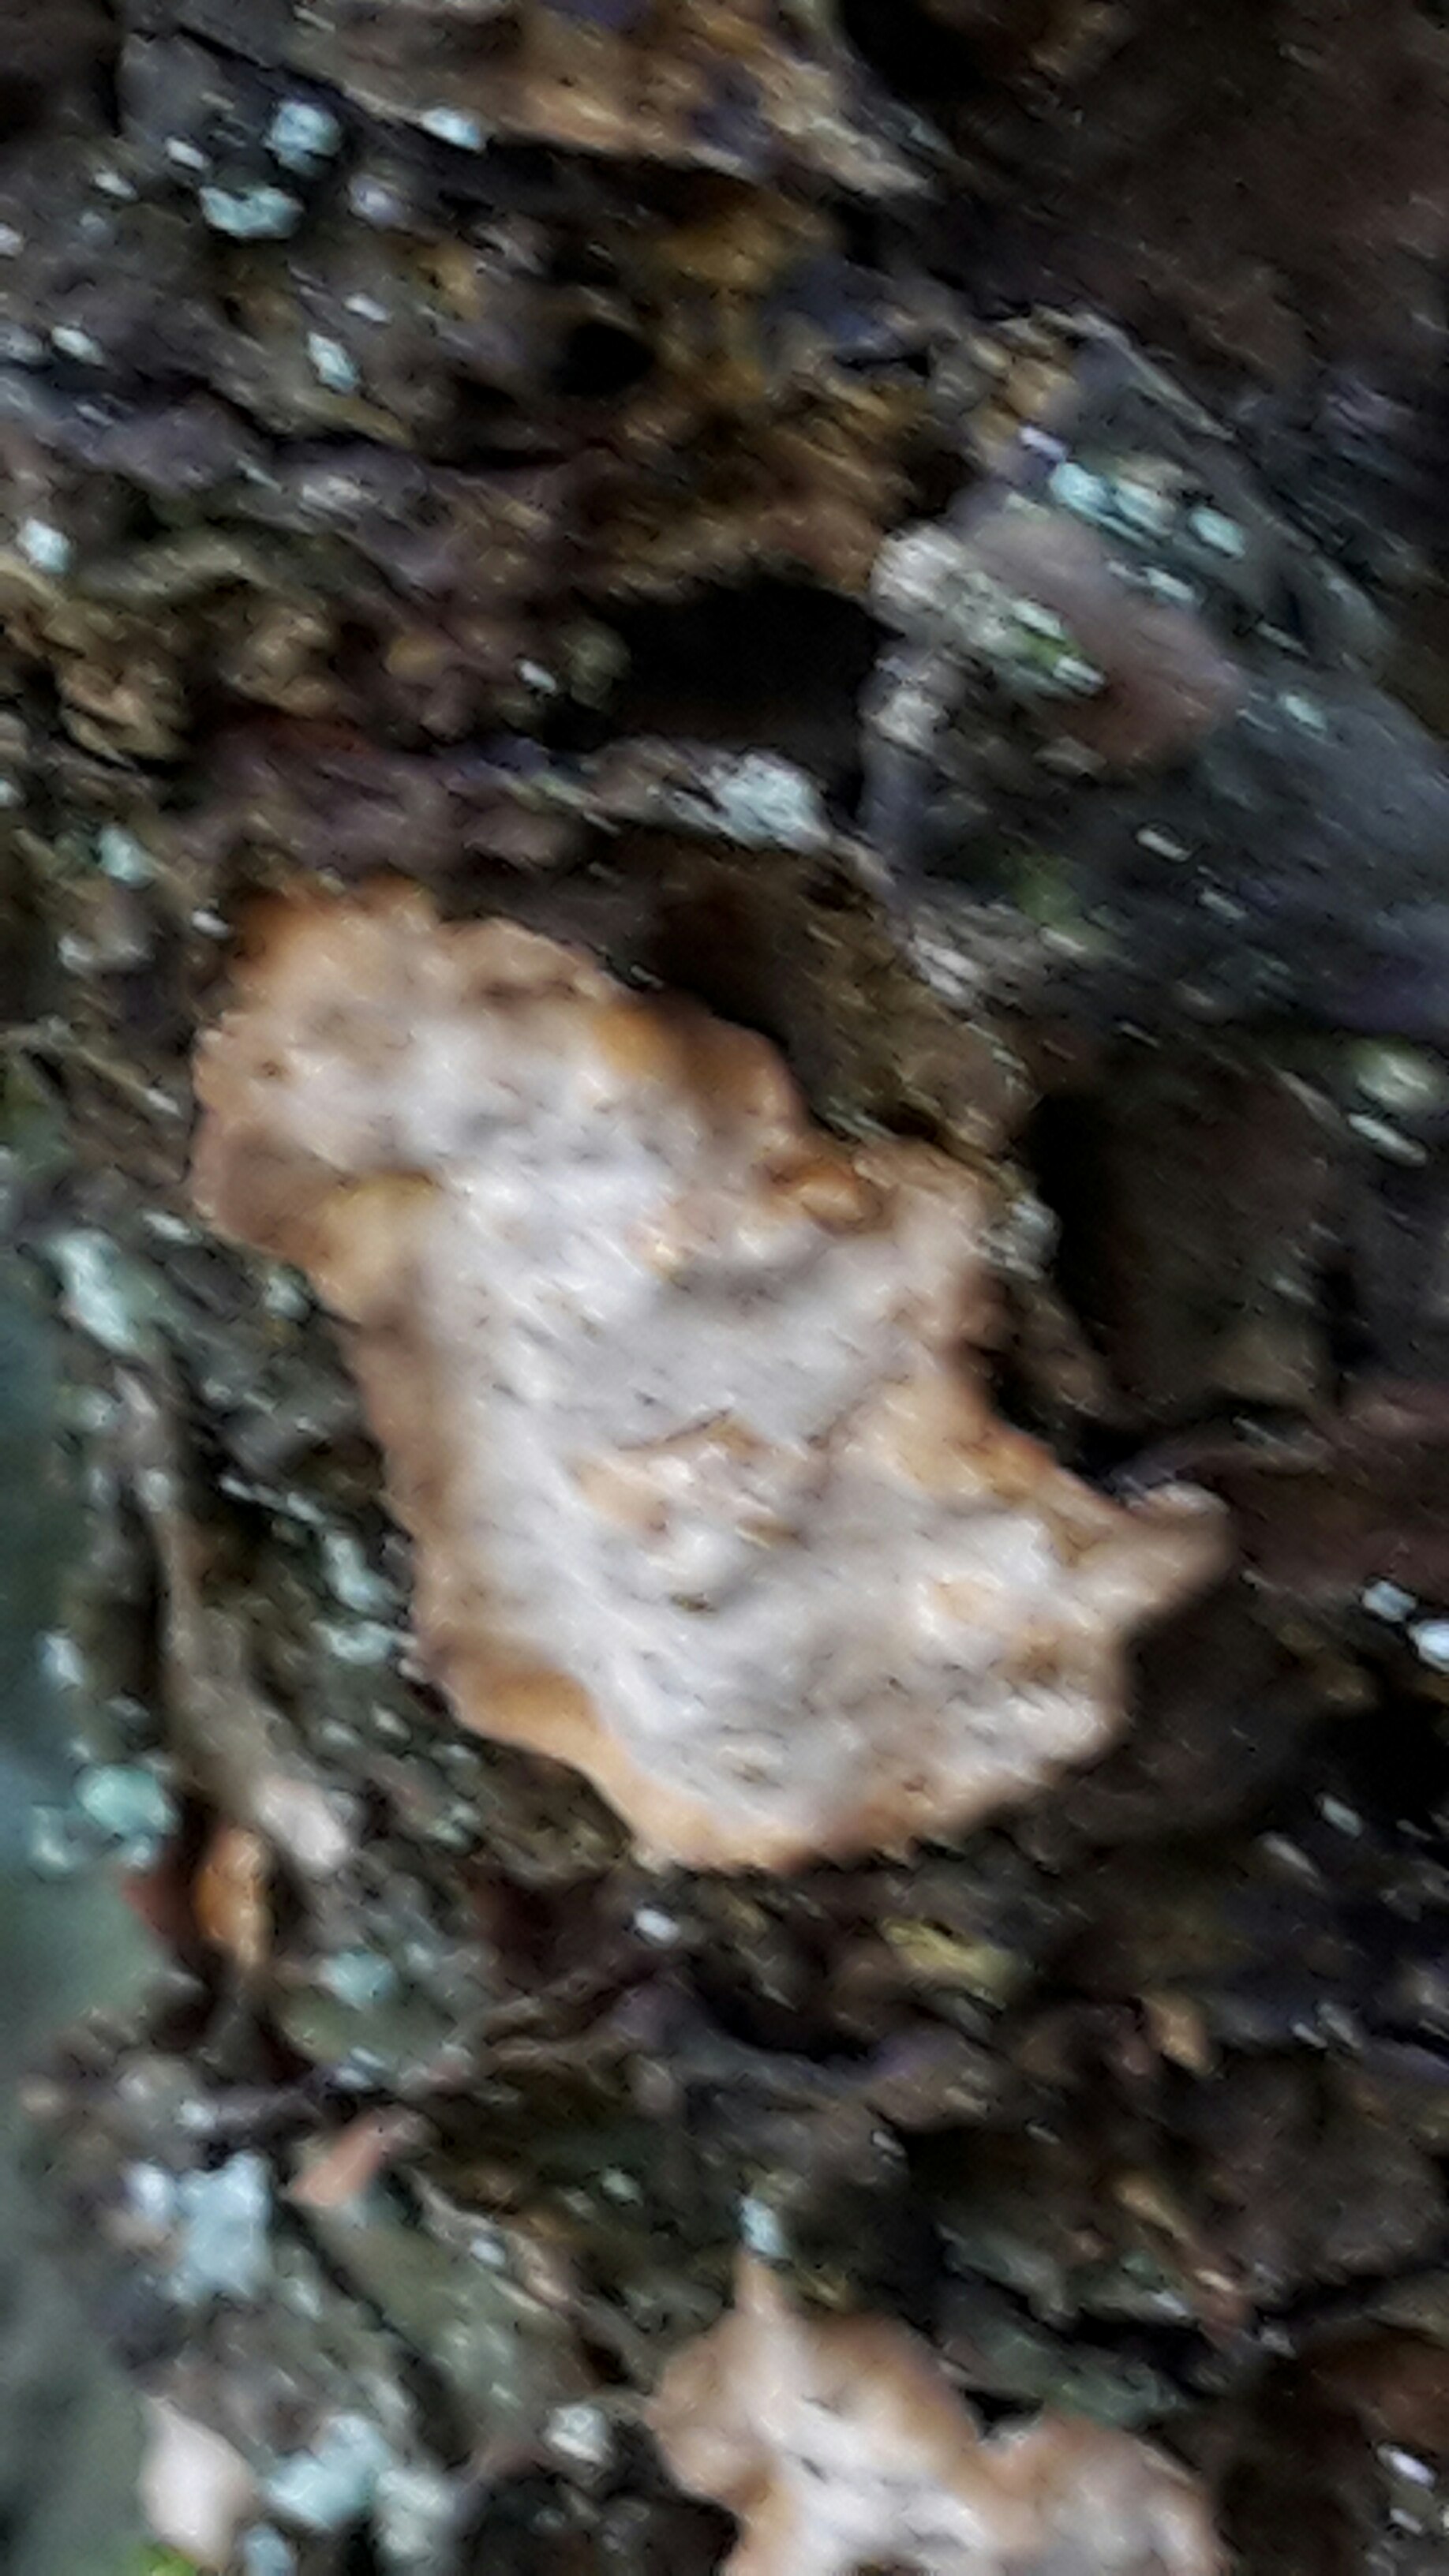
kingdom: Fungi
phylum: Basidiomycota
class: Agaricomycetes
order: Russulales
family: Stereaceae
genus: Stereum
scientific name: Stereum rugosum
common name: rynket lædersvamp
